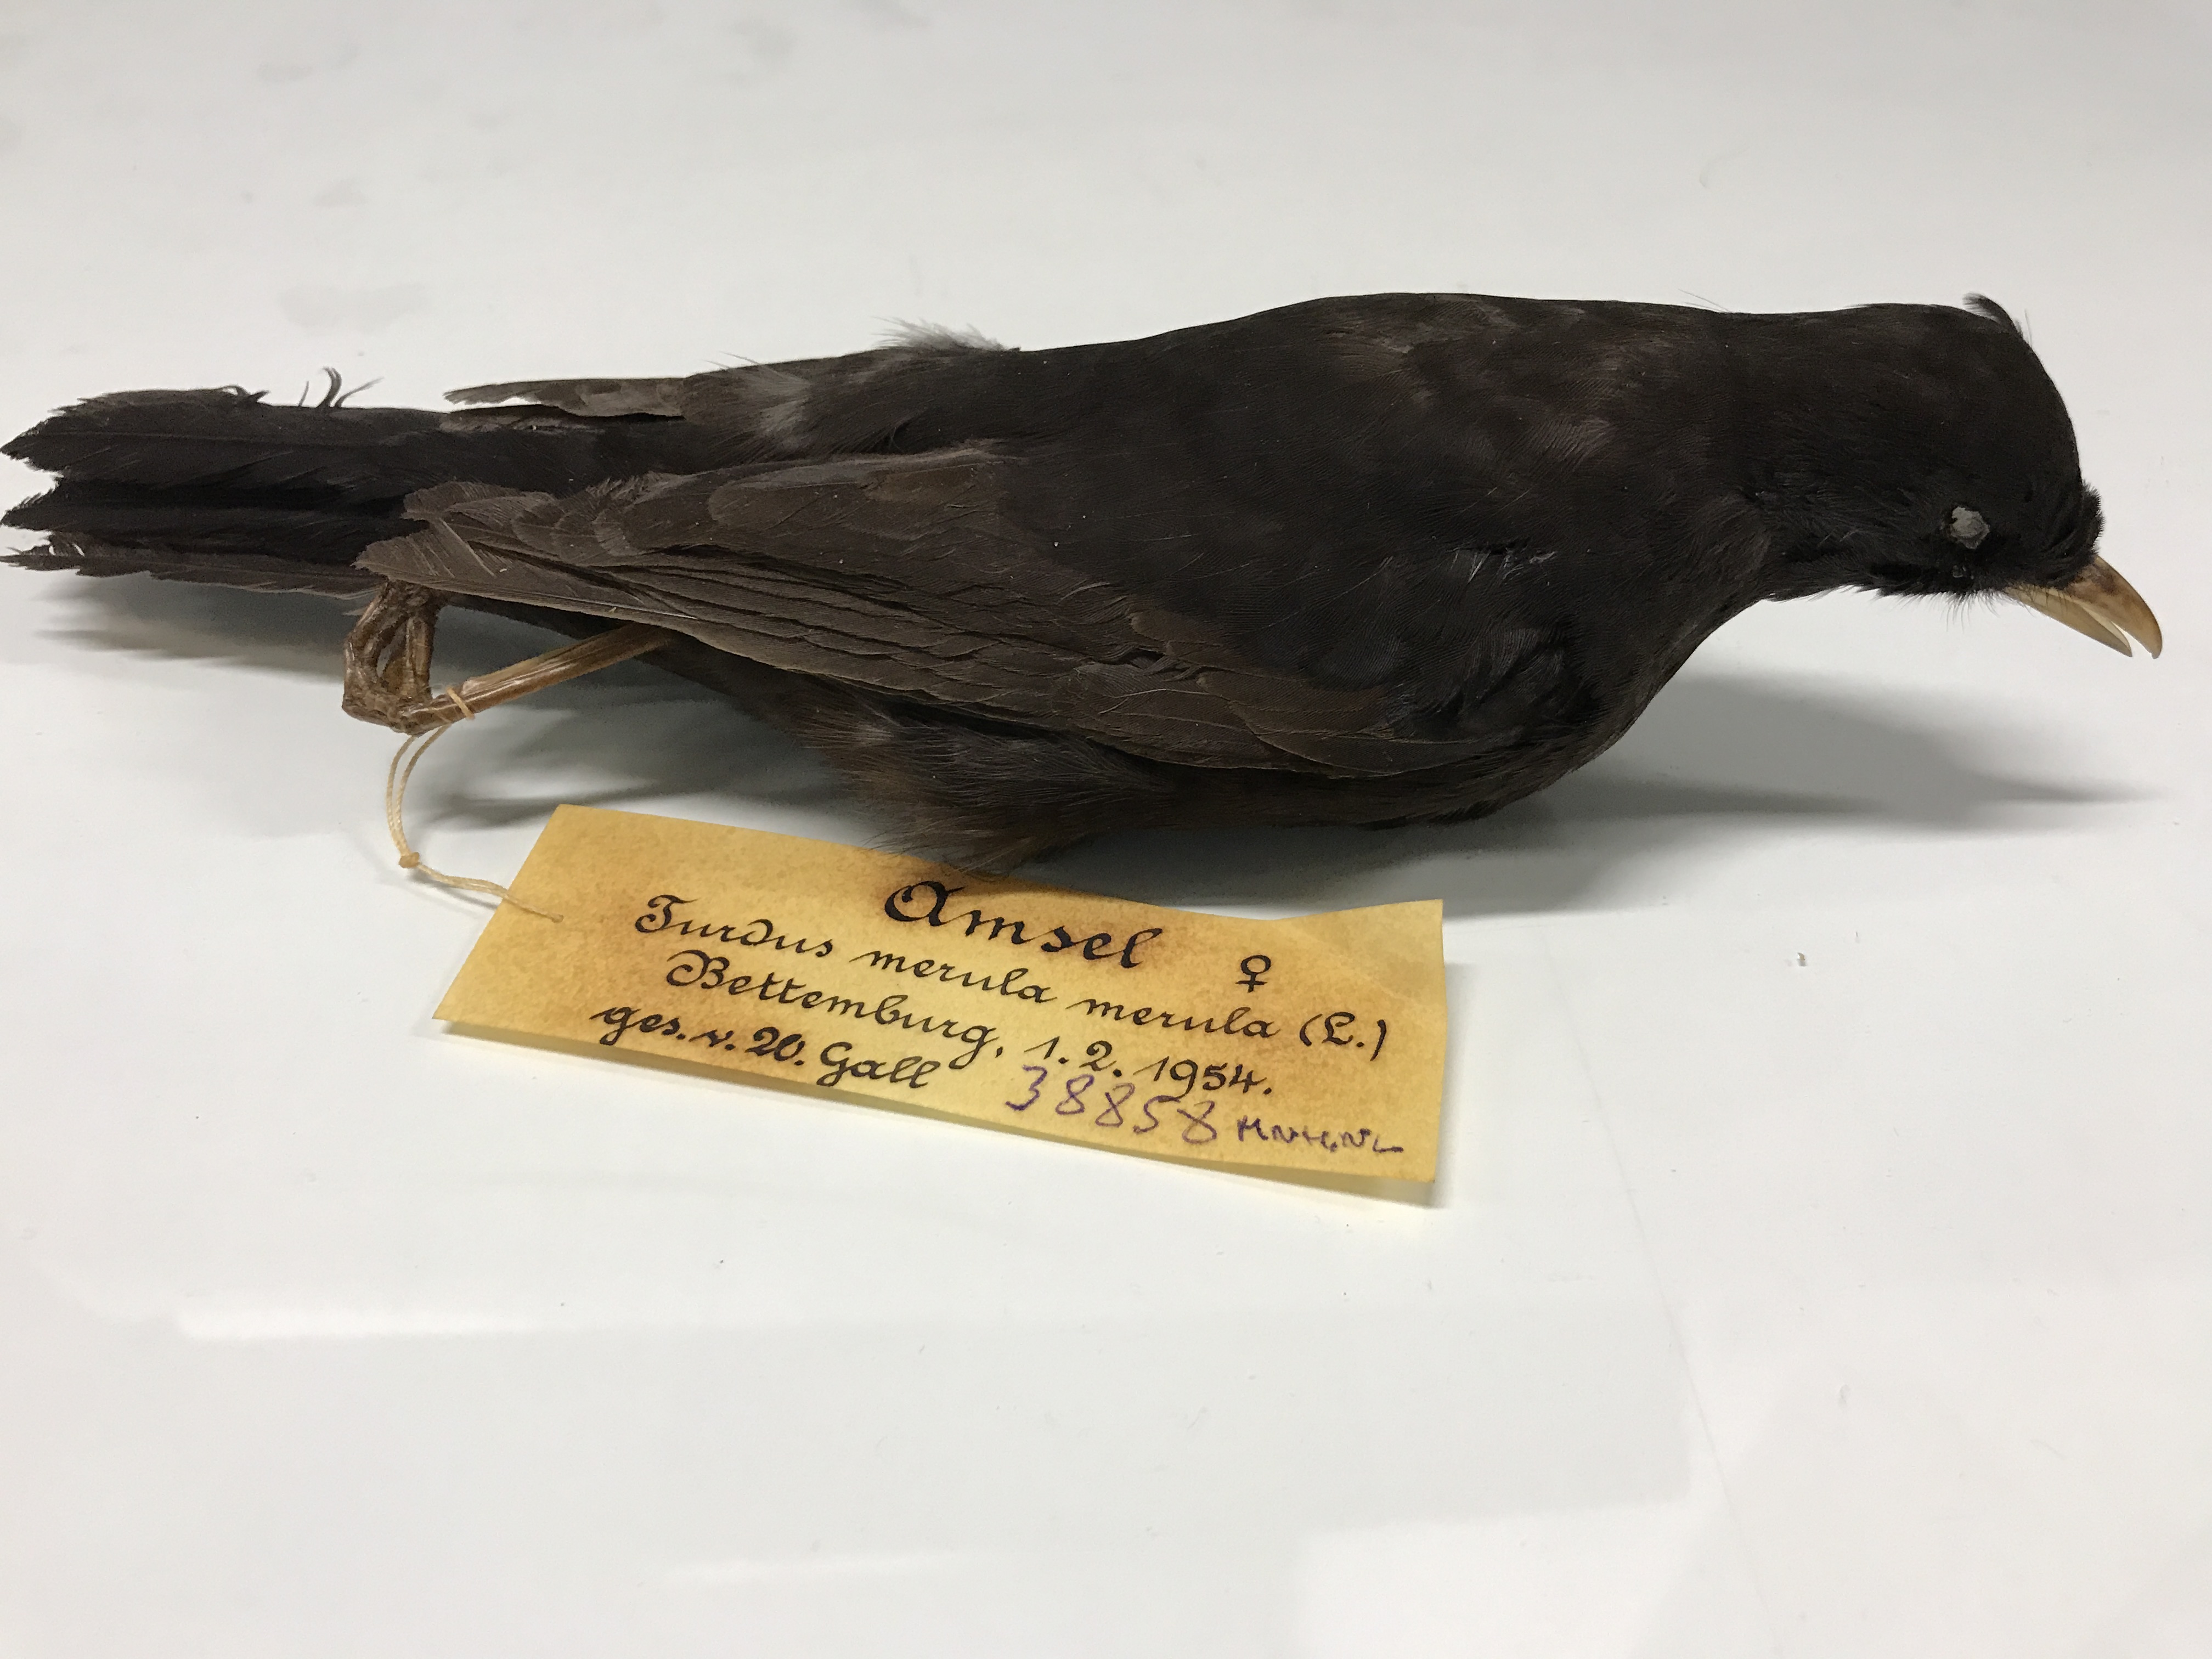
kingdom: Animalia
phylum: Chordata
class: Aves
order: Passeriformes
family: Turdidae
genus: Turdus
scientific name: Turdus merula
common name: Common blackbird
